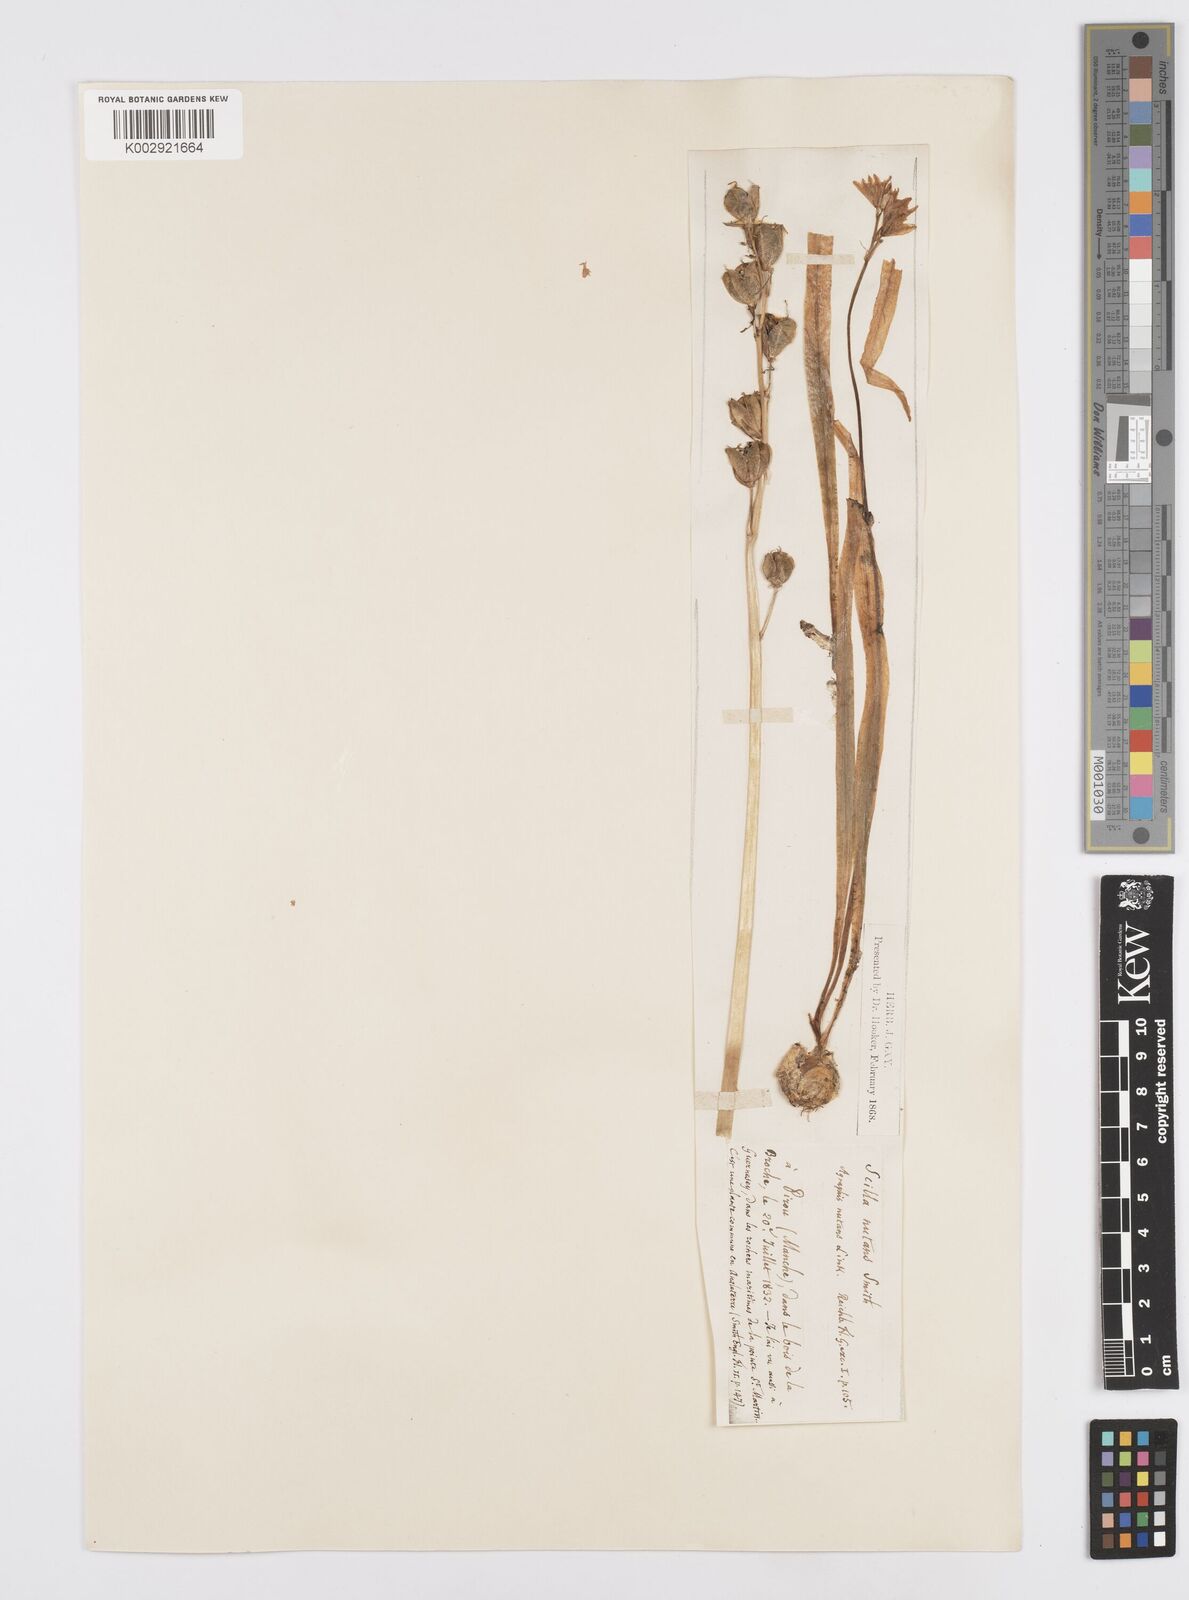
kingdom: Plantae
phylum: Tracheophyta
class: Liliopsida
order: Asparagales
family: Asparagaceae
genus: Hyacinthoides
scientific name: Hyacinthoides non-scripta
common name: Bluebell
